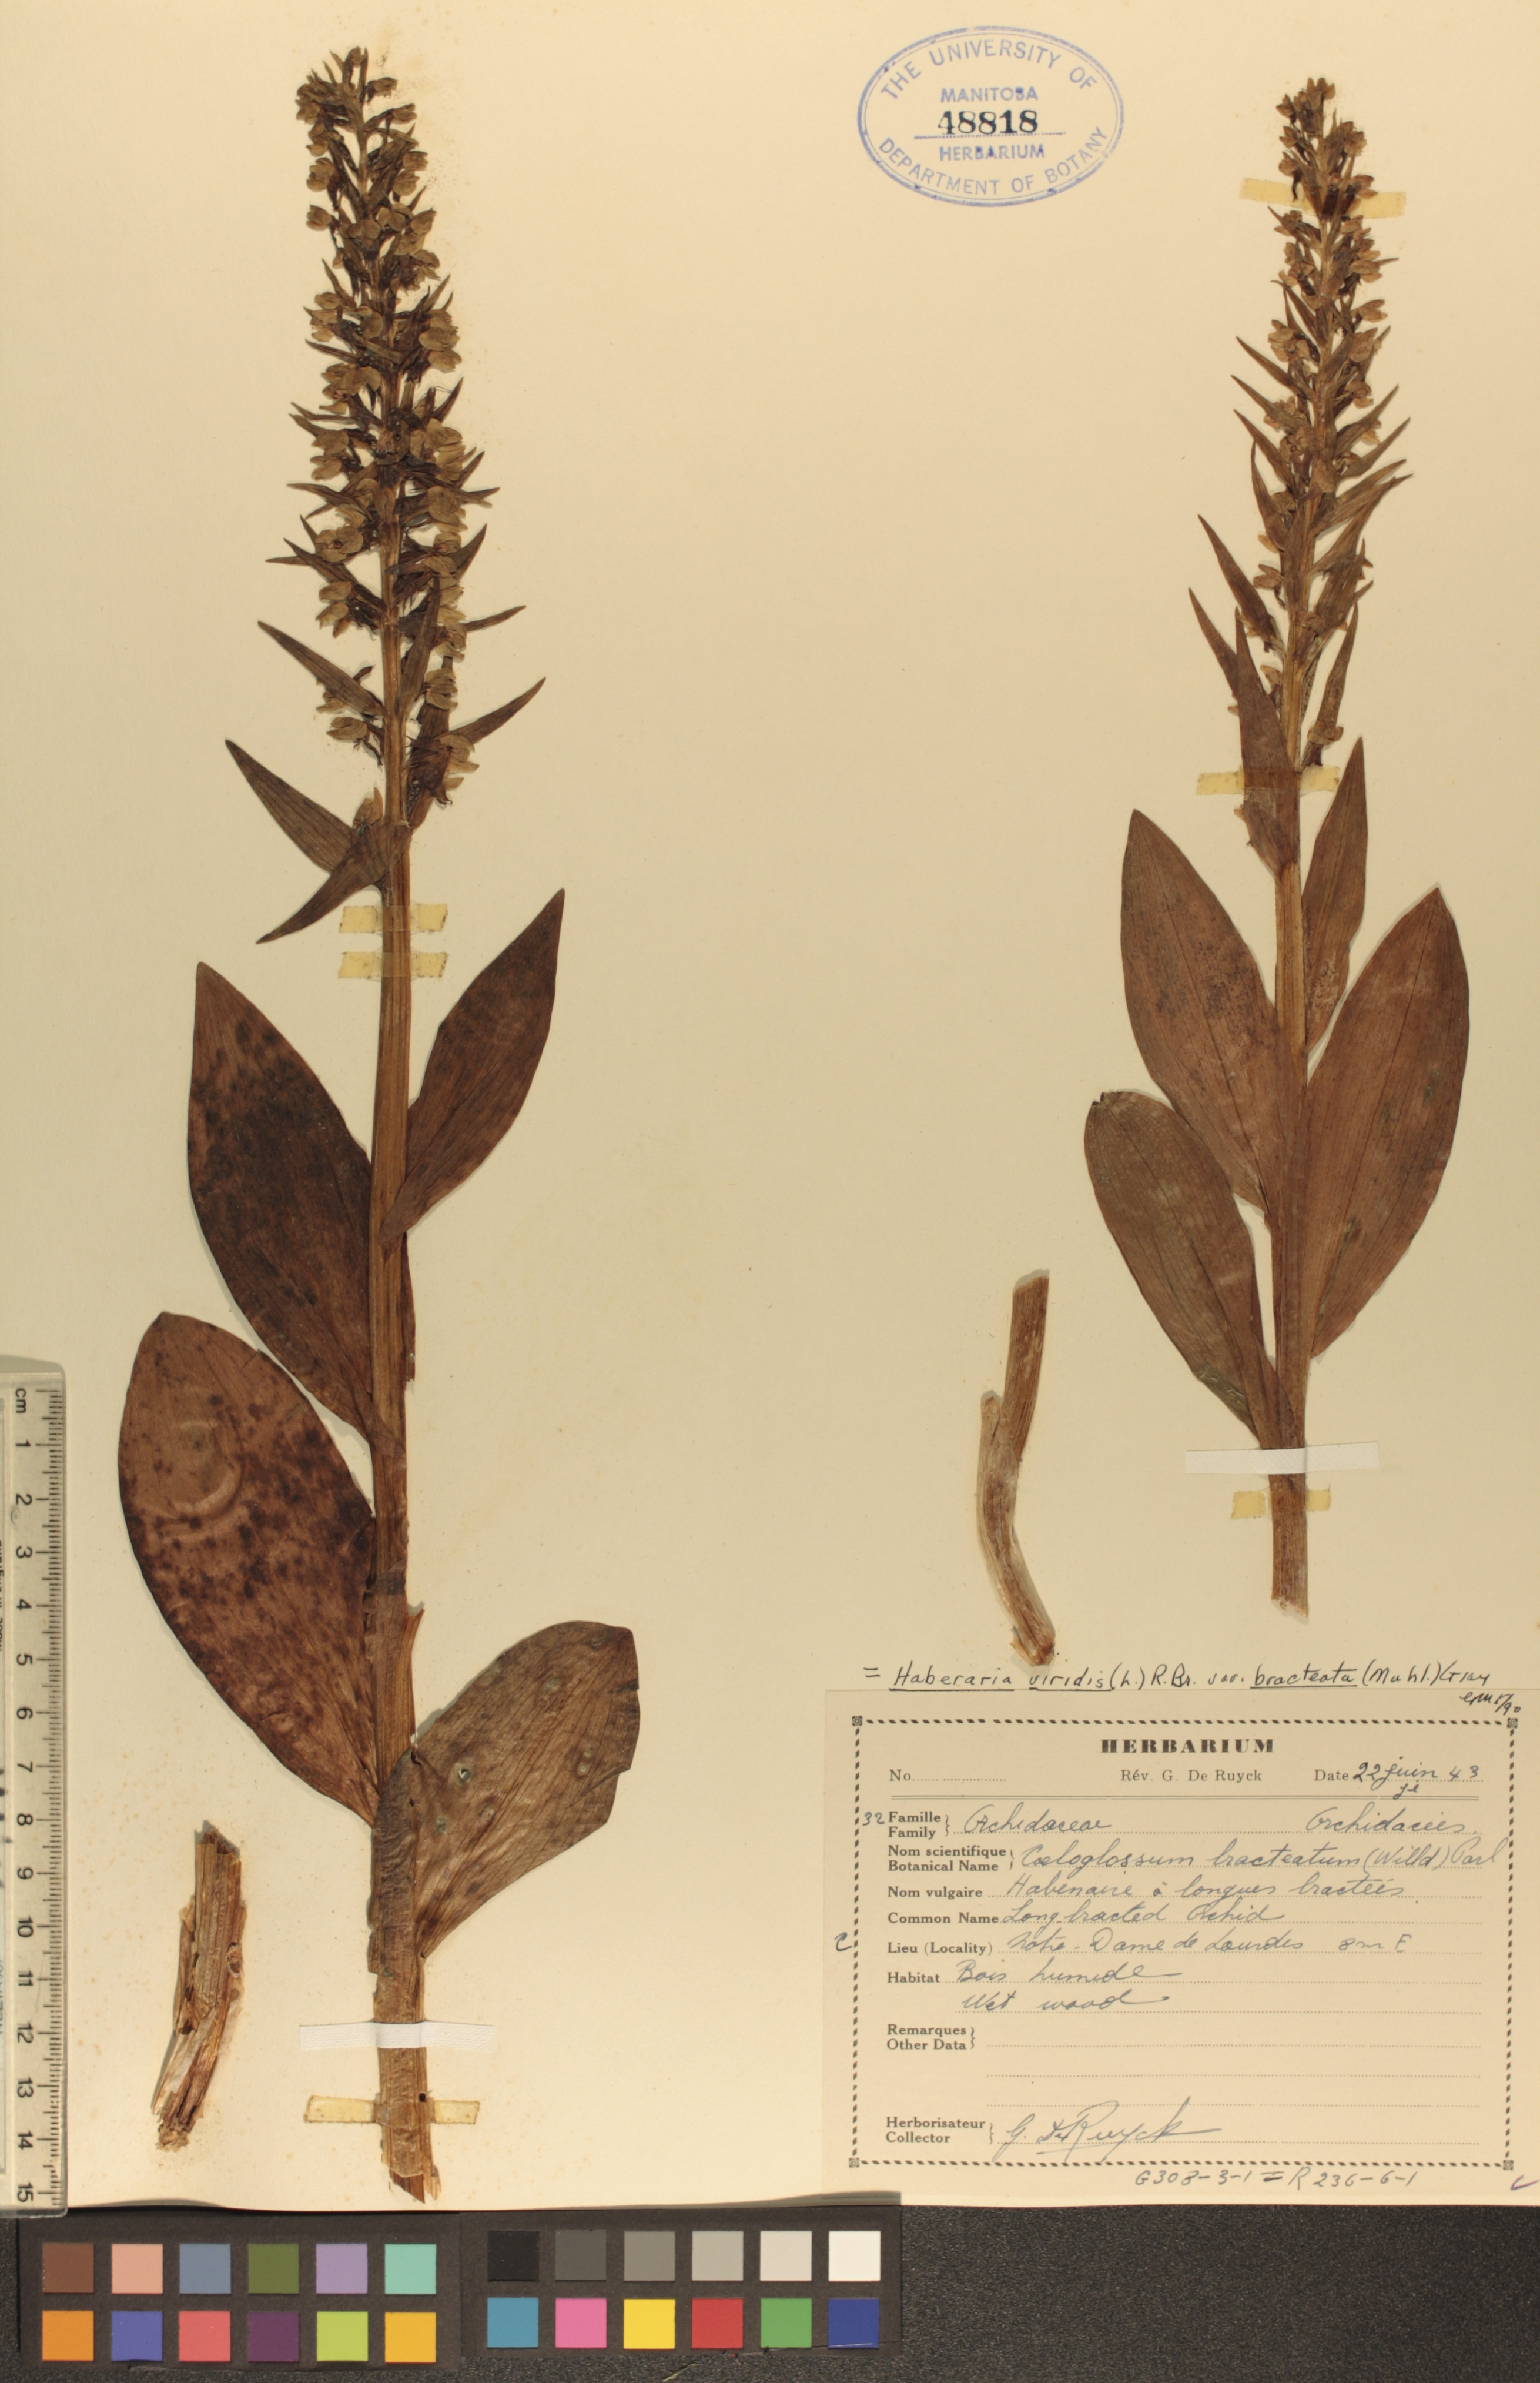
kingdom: Plantae
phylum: Tracheophyta
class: Liliopsida
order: Asparagales
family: Orchidaceae
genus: Dactylorhiza
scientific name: Dactylorhiza viridis
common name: Longbract frog orchid
